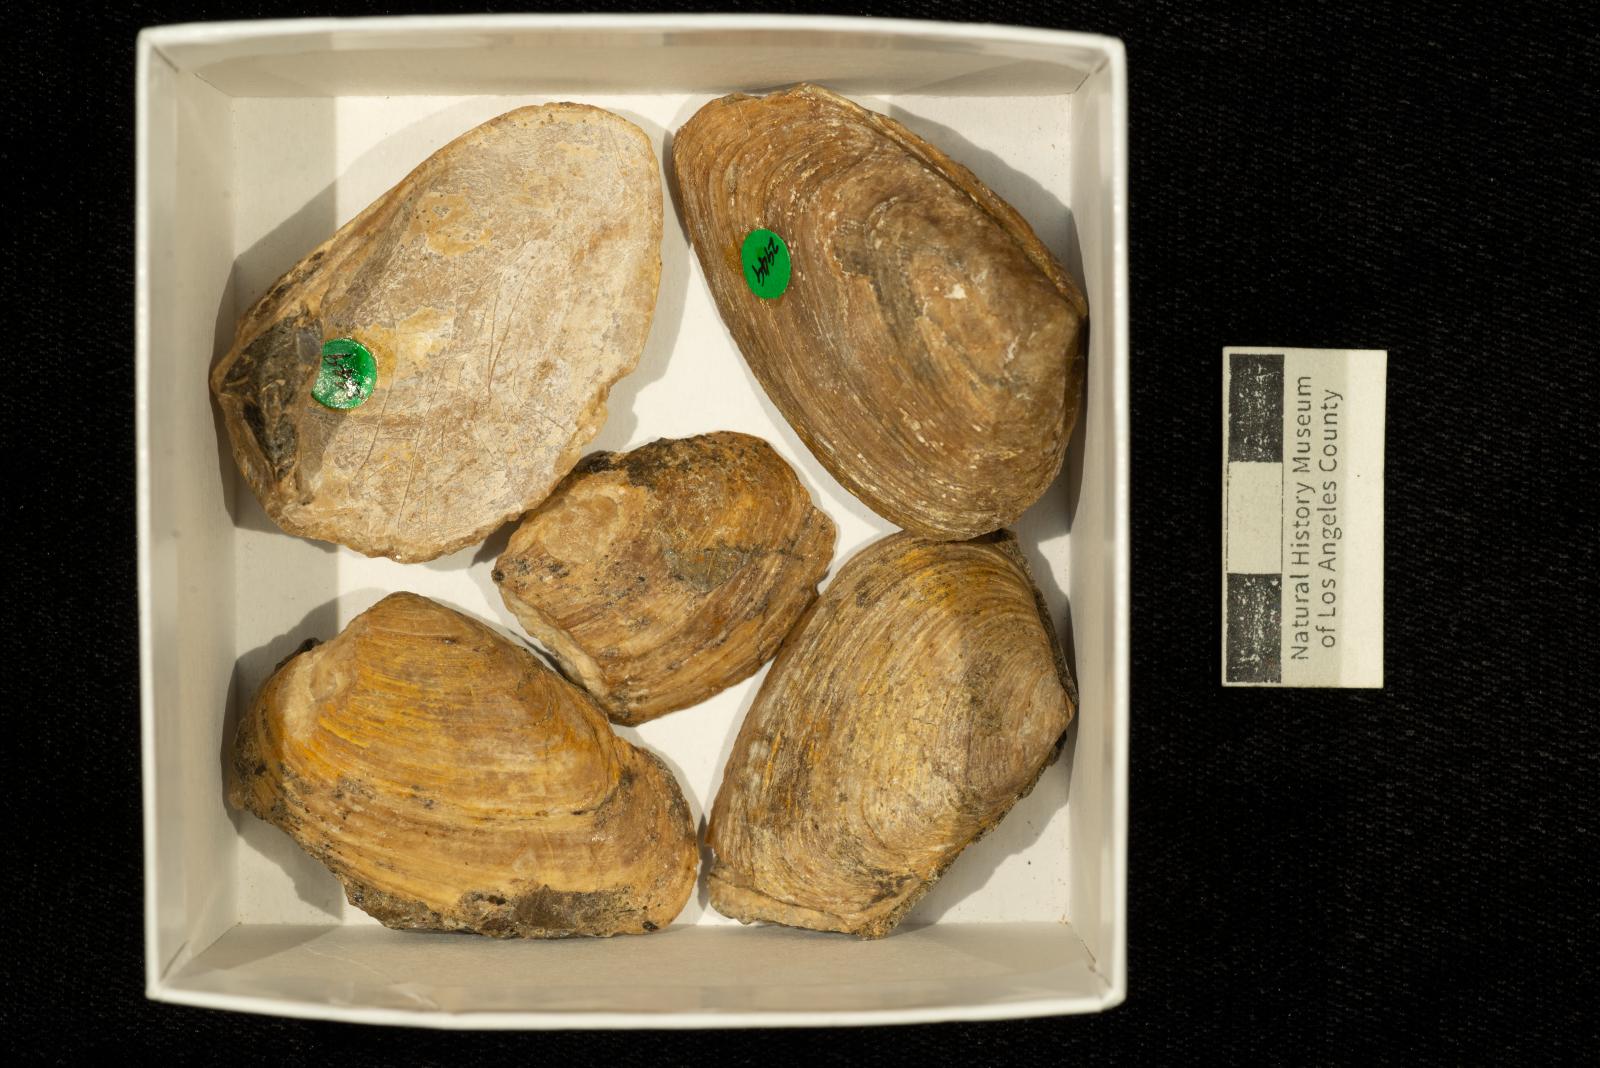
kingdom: Animalia
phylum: Mollusca
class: Bivalvia
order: Carditida
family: Crassatellidae
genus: Crassatella
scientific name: Crassatella
